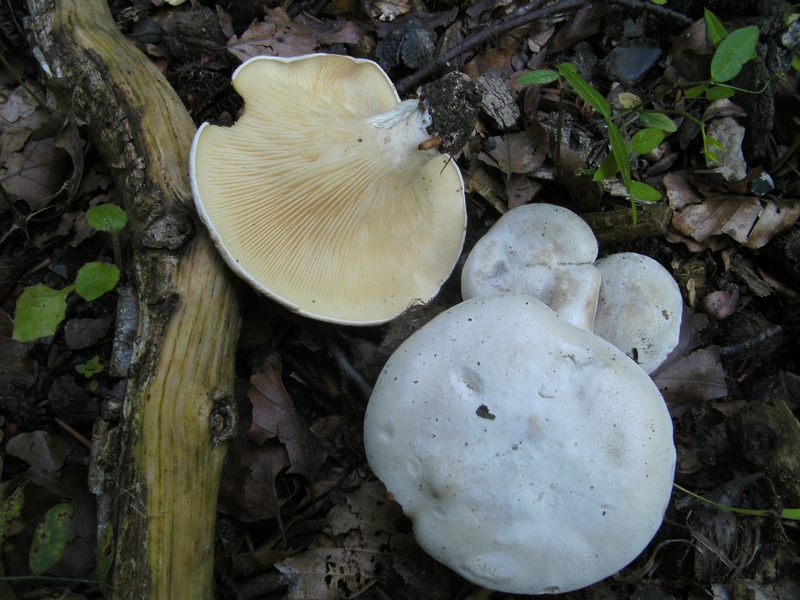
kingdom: Fungi
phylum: Basidiomycota
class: Agaricomycetes
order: Agaricales
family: Entolomataceae
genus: Clitopilus
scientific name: Clitopilus prunulus
